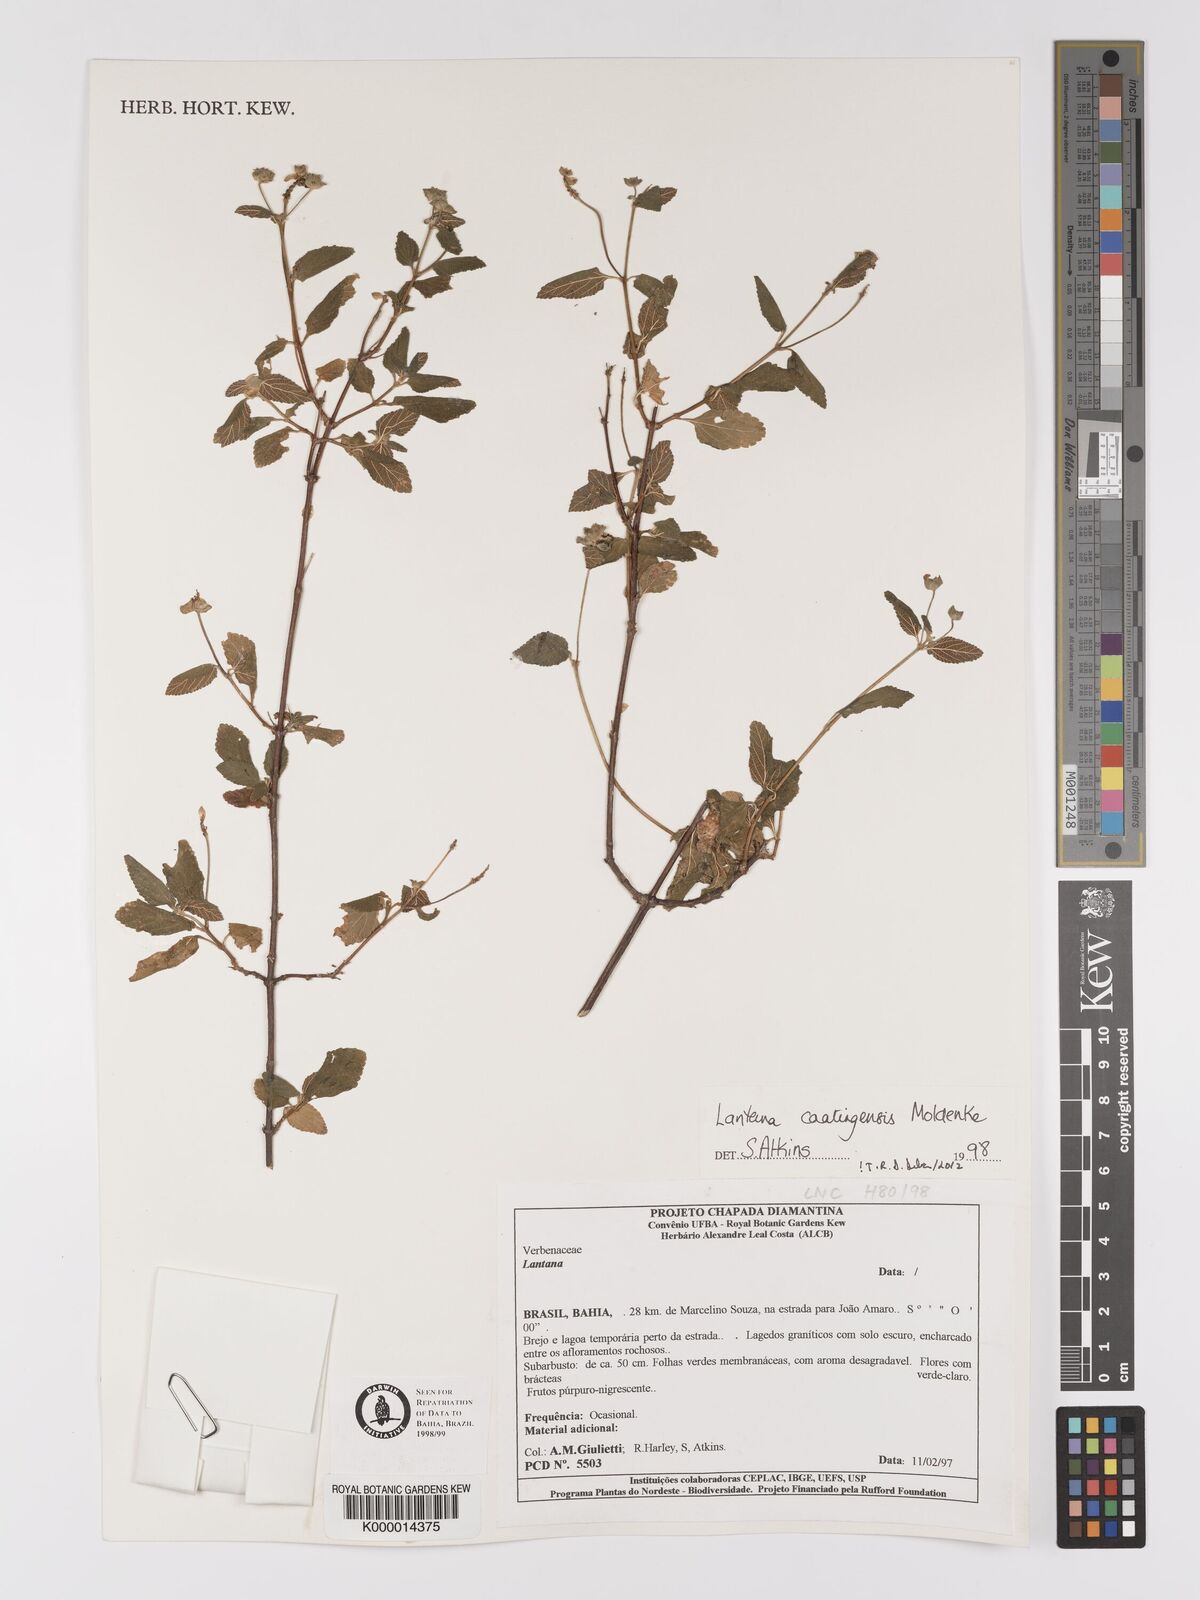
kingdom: Plantae
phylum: Tracheophyta
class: Magnoliopsida
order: Lamiales
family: Verbenaceae
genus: Lantana
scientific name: Lantana caatingensis
